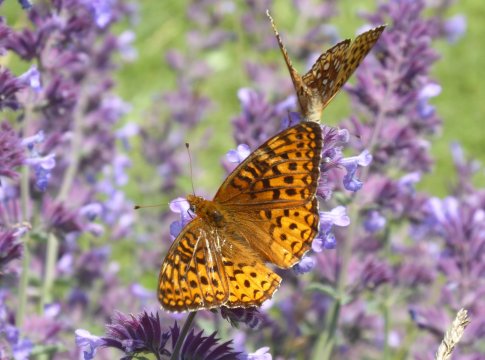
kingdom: Animalia
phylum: Arthropoda
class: Insecta
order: Lepidoptera
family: Nymphalidae
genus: Speyeria
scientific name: Speyeria atlantis
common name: Atlantis Fritillary
